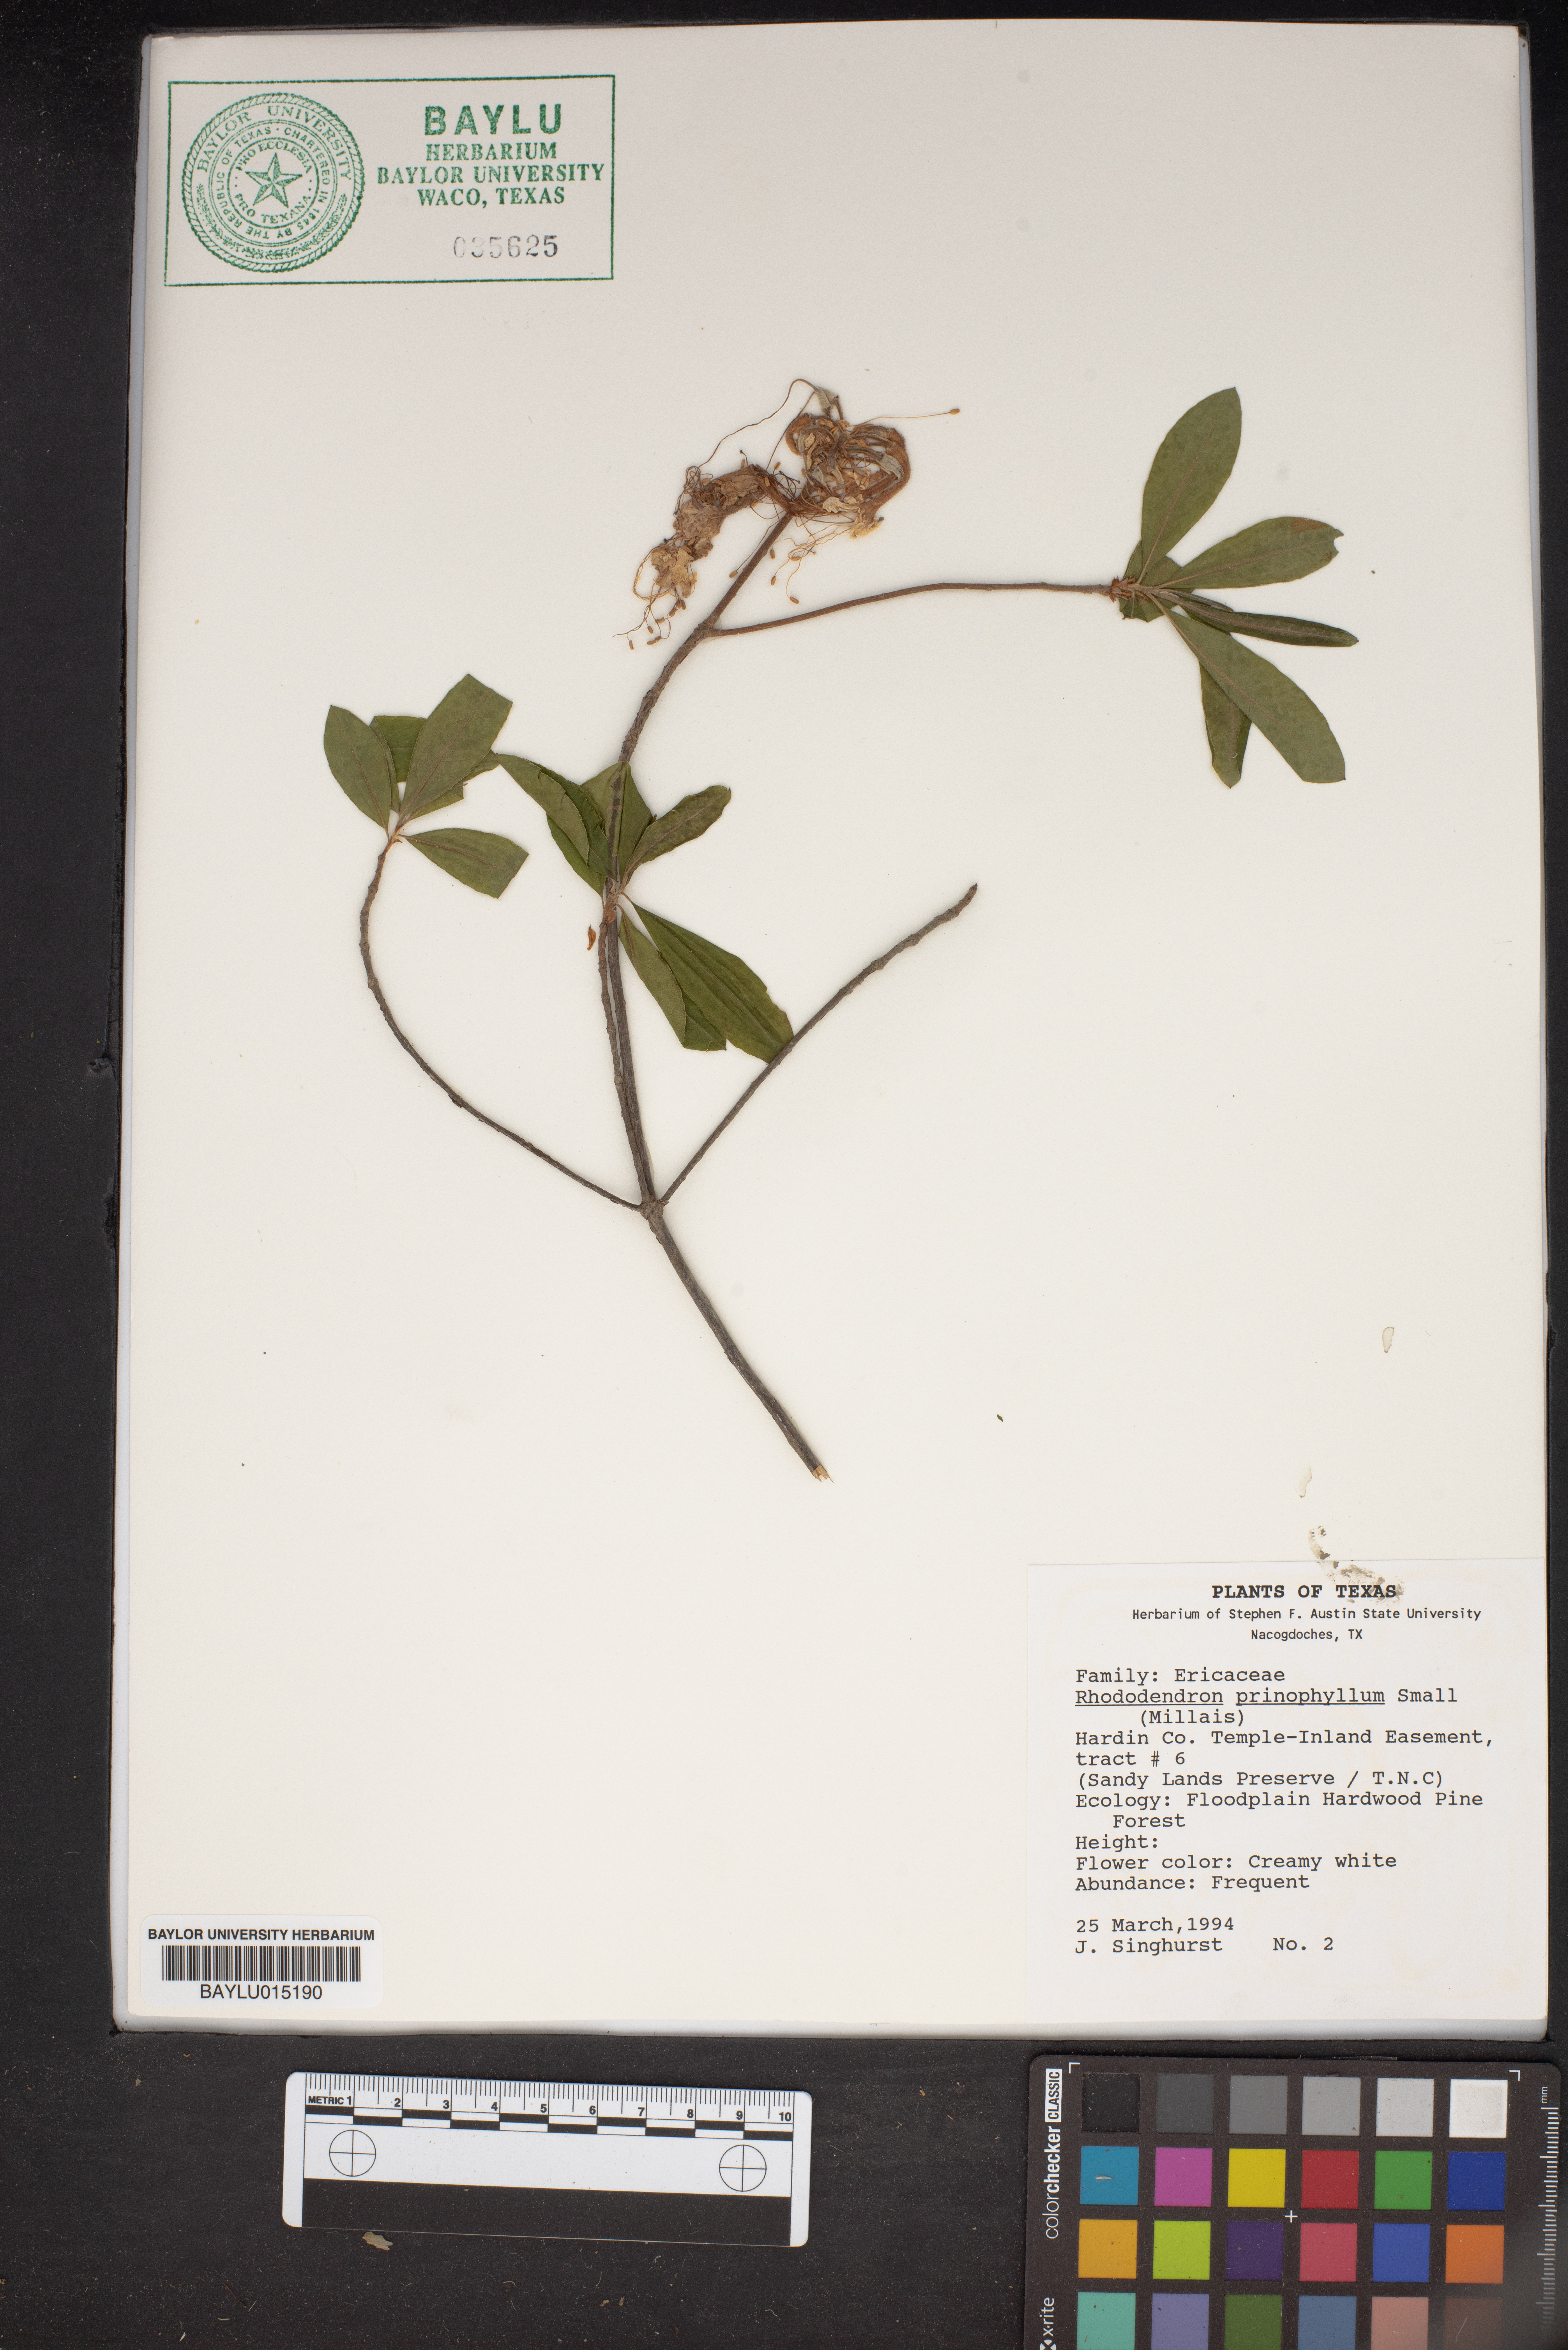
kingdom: Plantae
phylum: Tracheophyta
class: Magnoliopsida
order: Ericales
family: Ericaceae
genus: Rhododendron
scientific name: Rhododendron roseum
